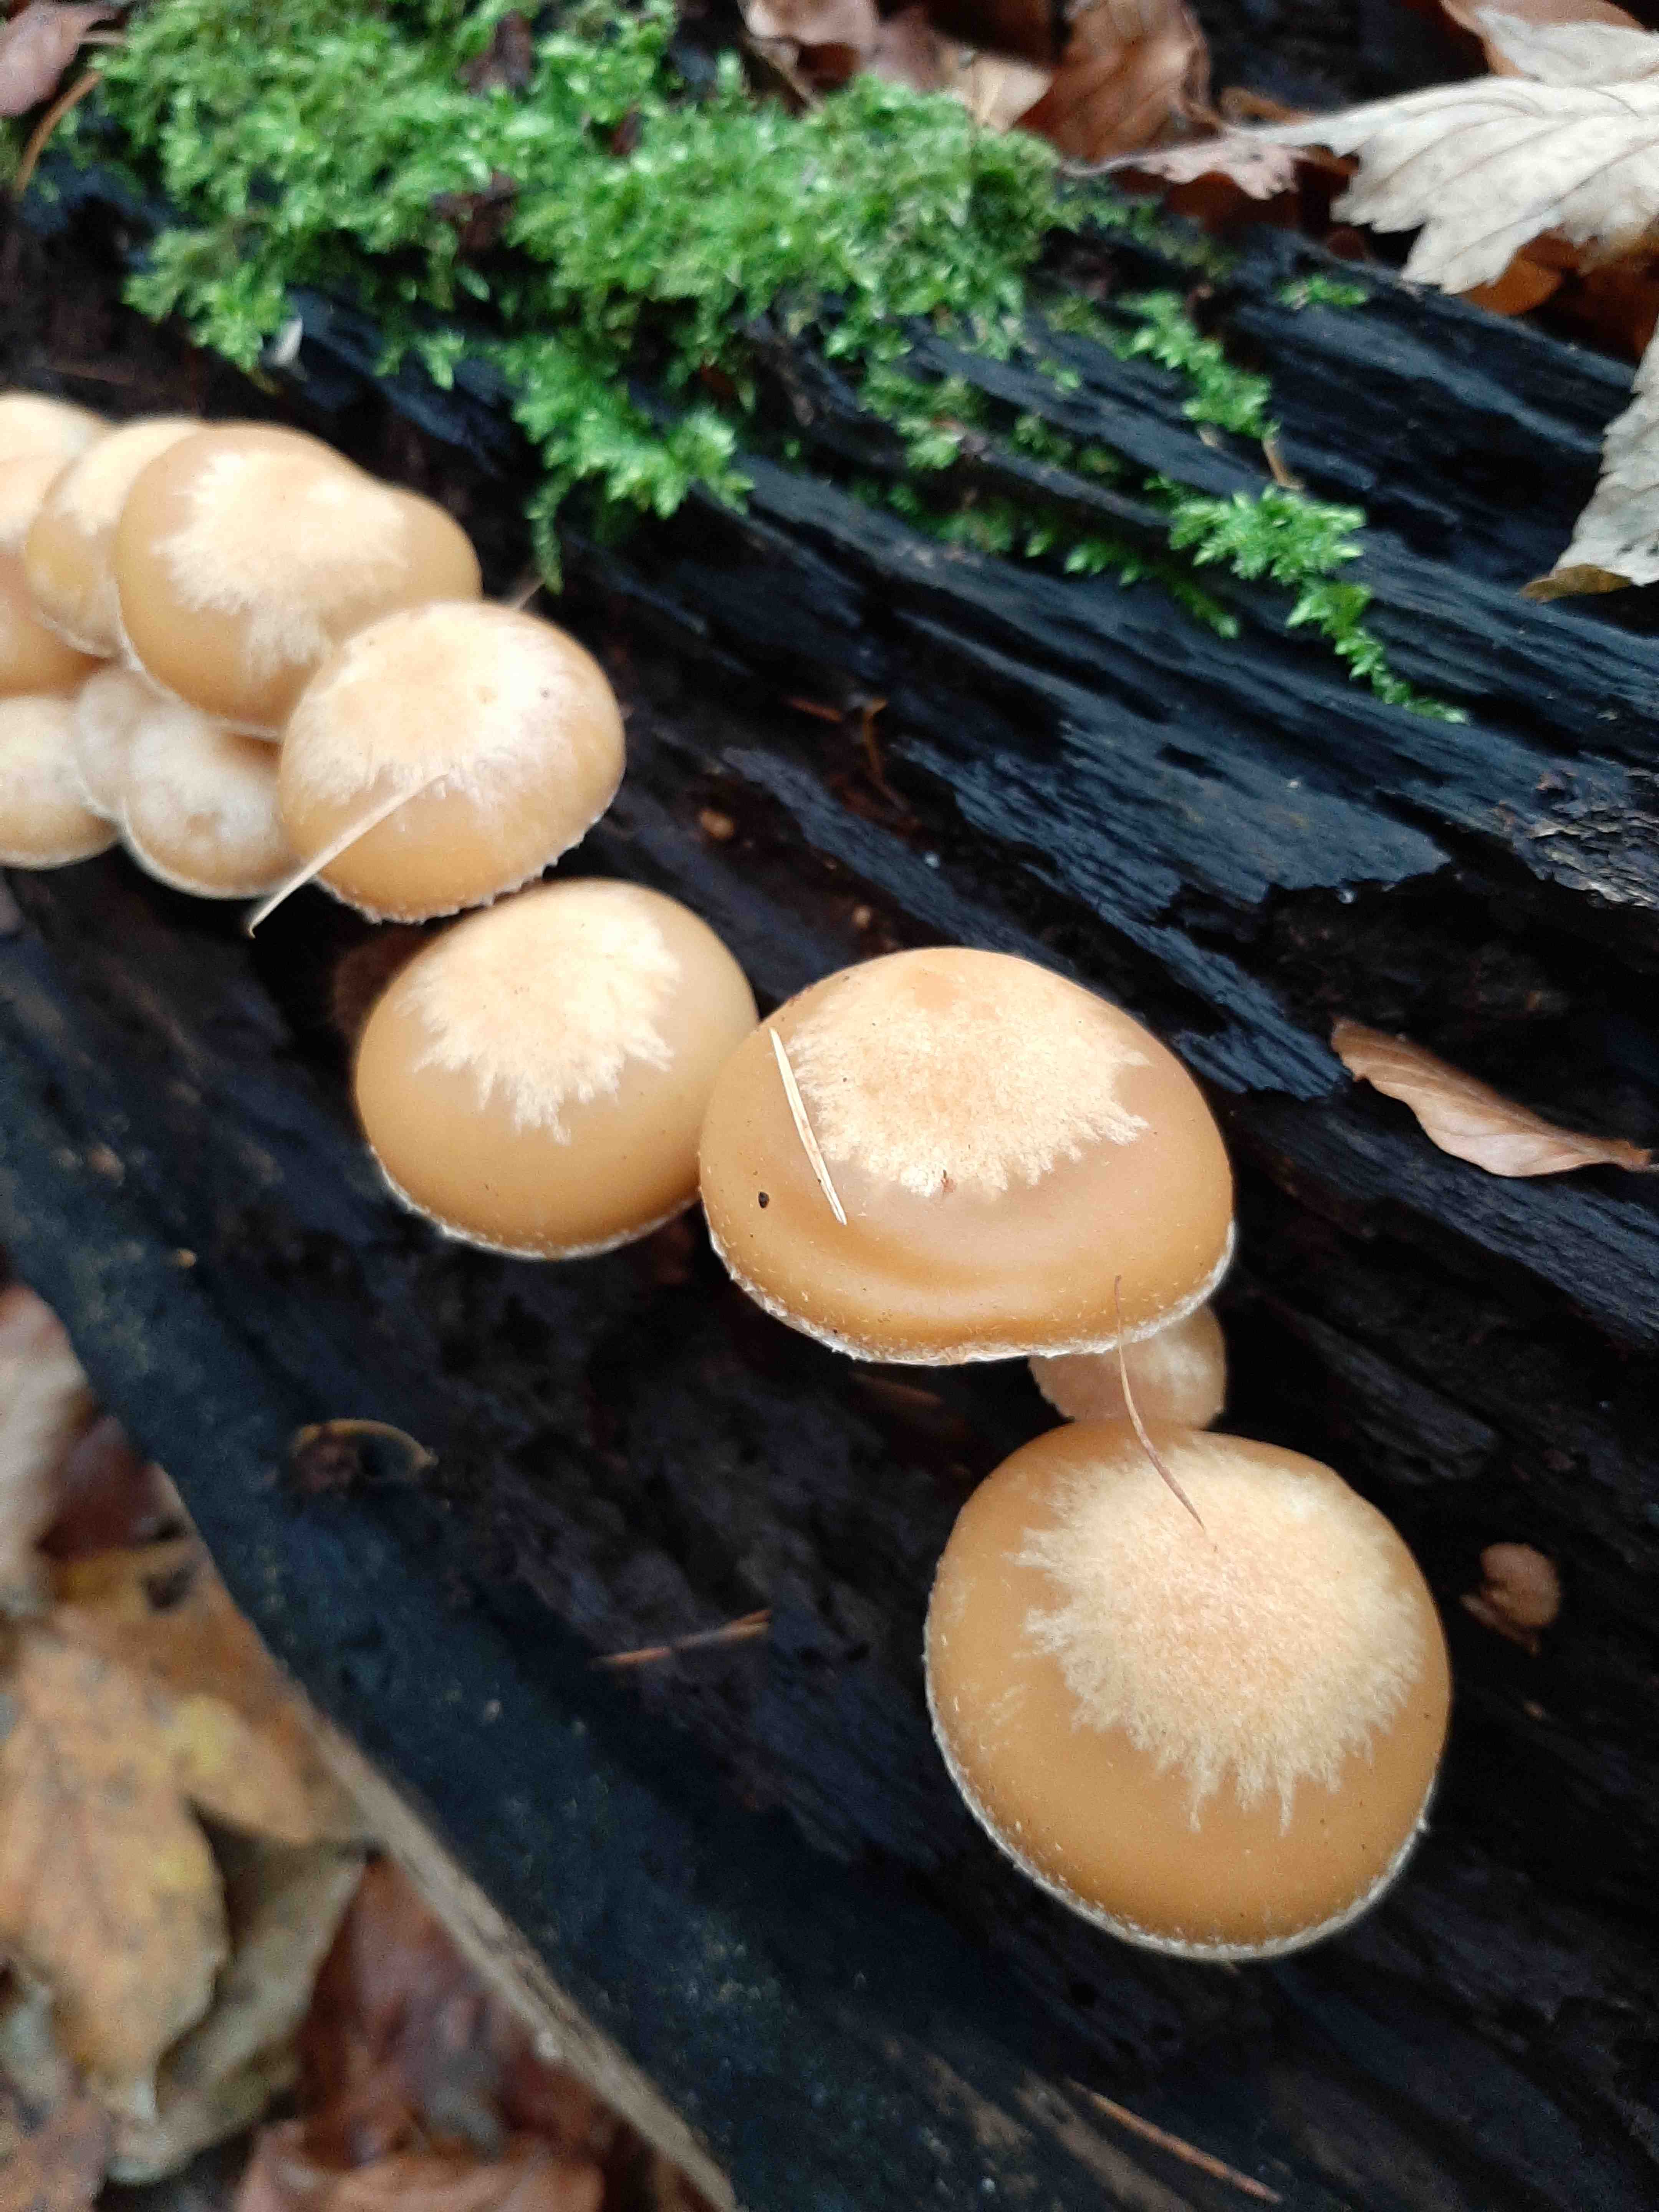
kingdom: Fungi
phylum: Basidiomycota
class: Agaricomycetes
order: Agaricales
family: Strophariaceae
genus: Kuehneromyces
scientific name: Kuehneromyces mutabilis
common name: foranderlig skælhat
